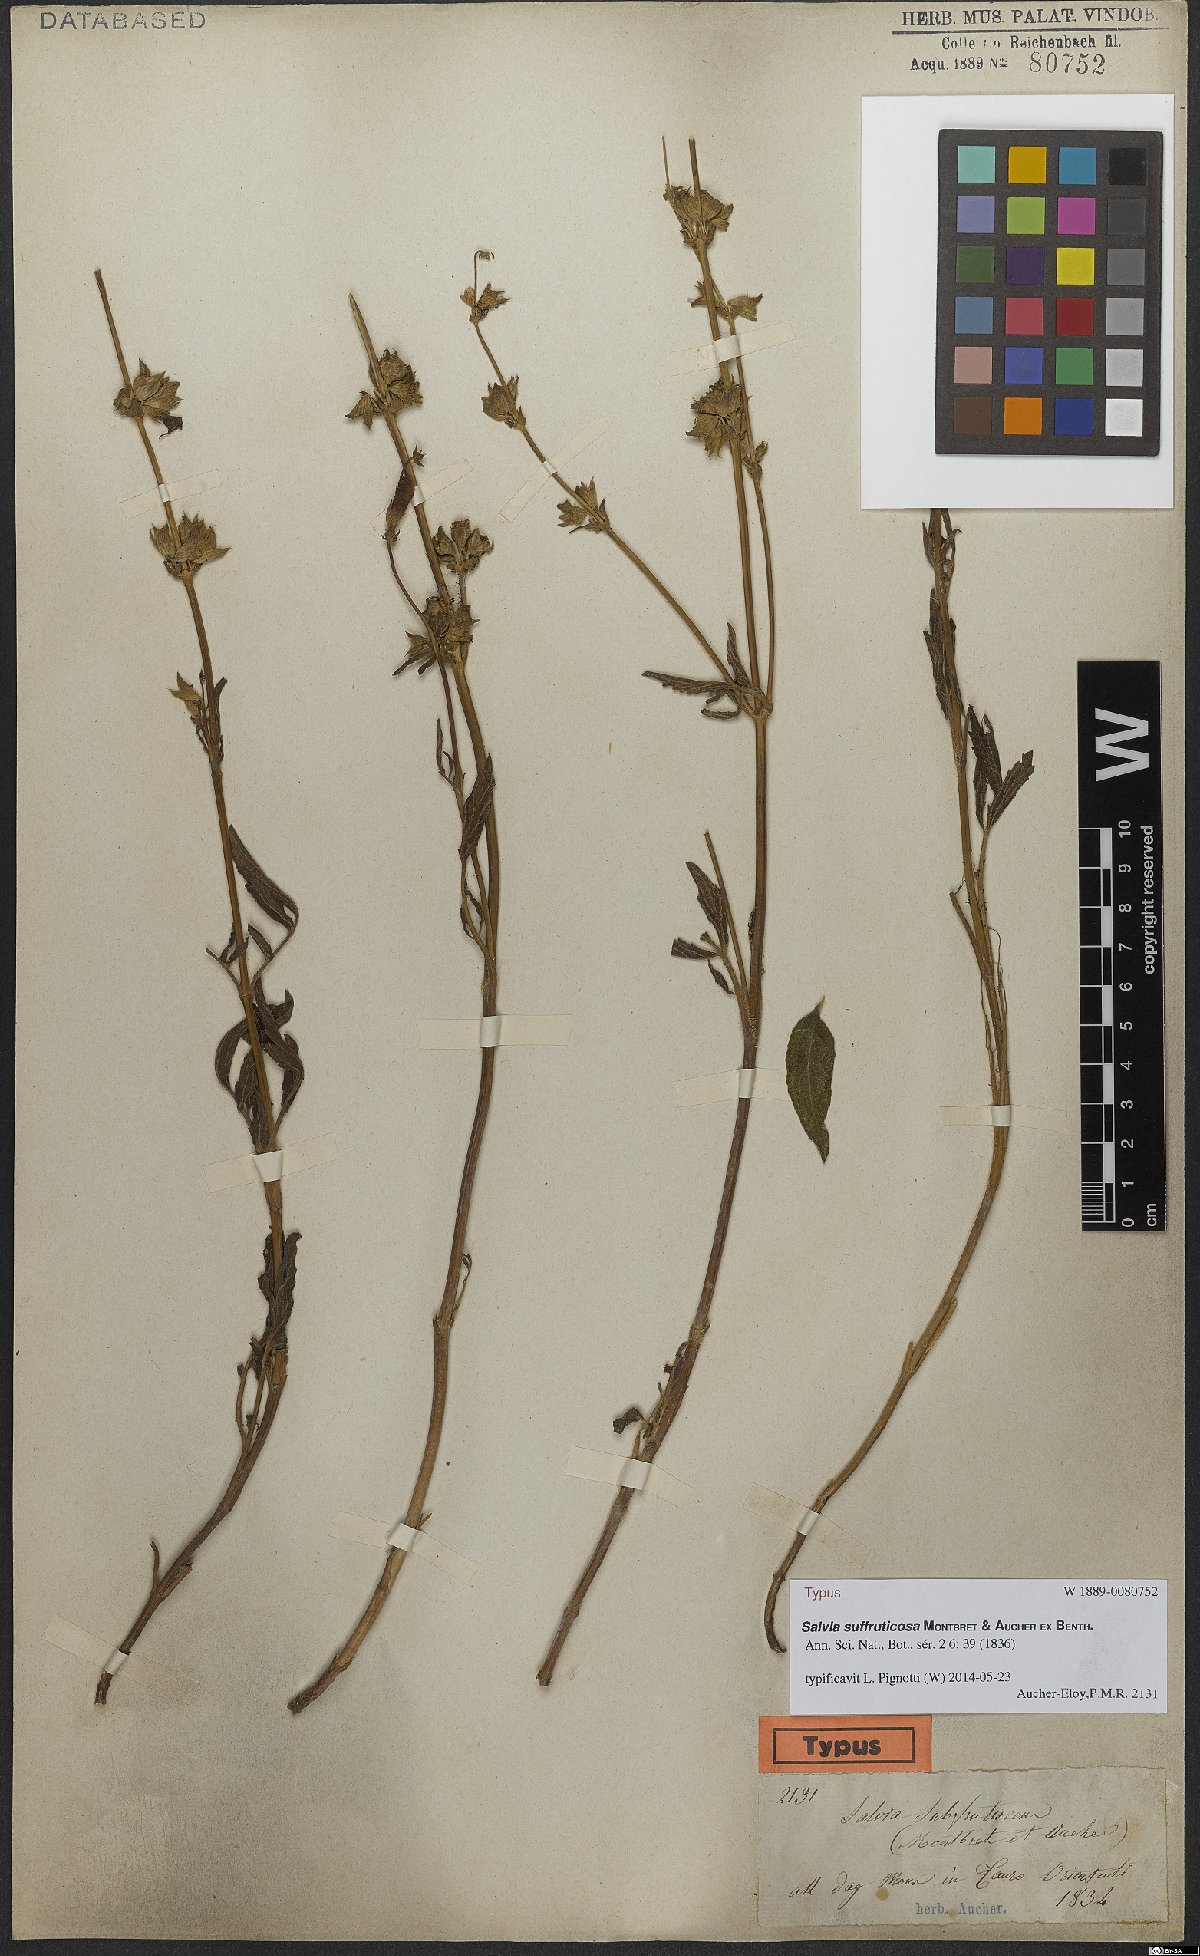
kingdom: Plantae
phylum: Tracheophyta
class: Magnoliopsida
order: Lamiales
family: Lamiaceae
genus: Salvia
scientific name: Salvia suffruticosa
